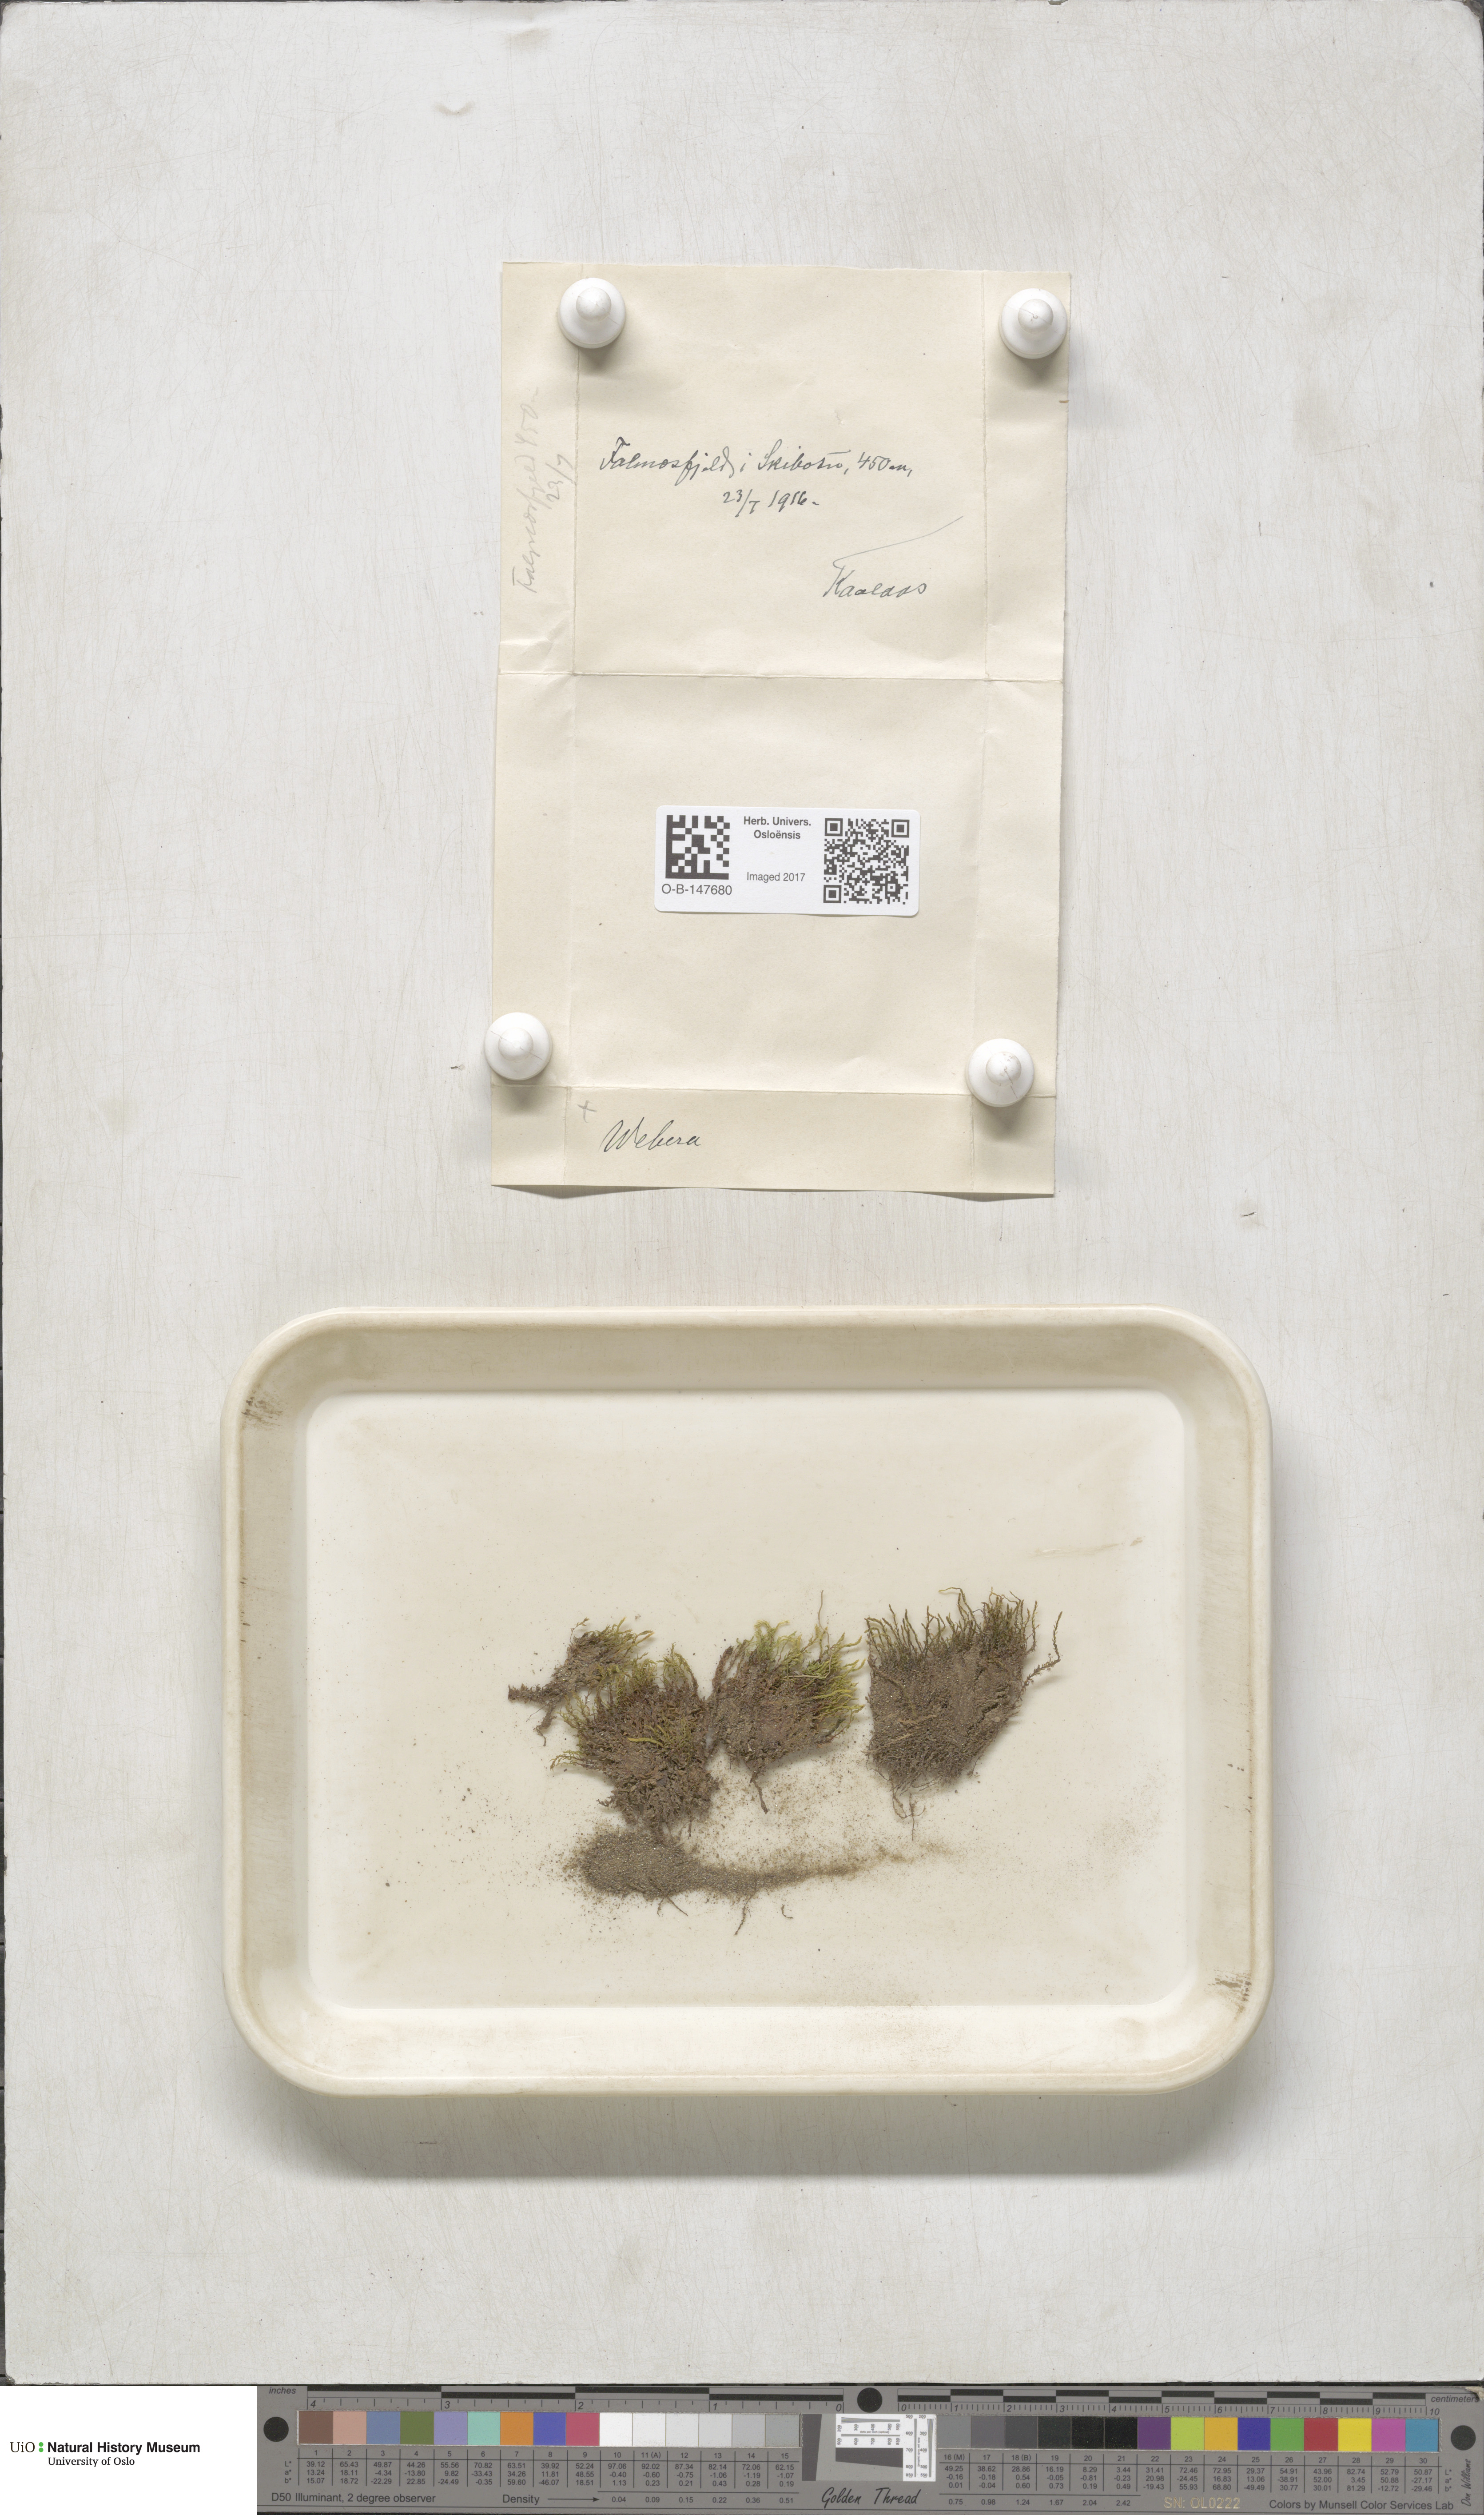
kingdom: Plantae
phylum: Bryophyta
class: Bryopsida
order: Bryales
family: Mniaceae
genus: Pohlia
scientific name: Pohlia
